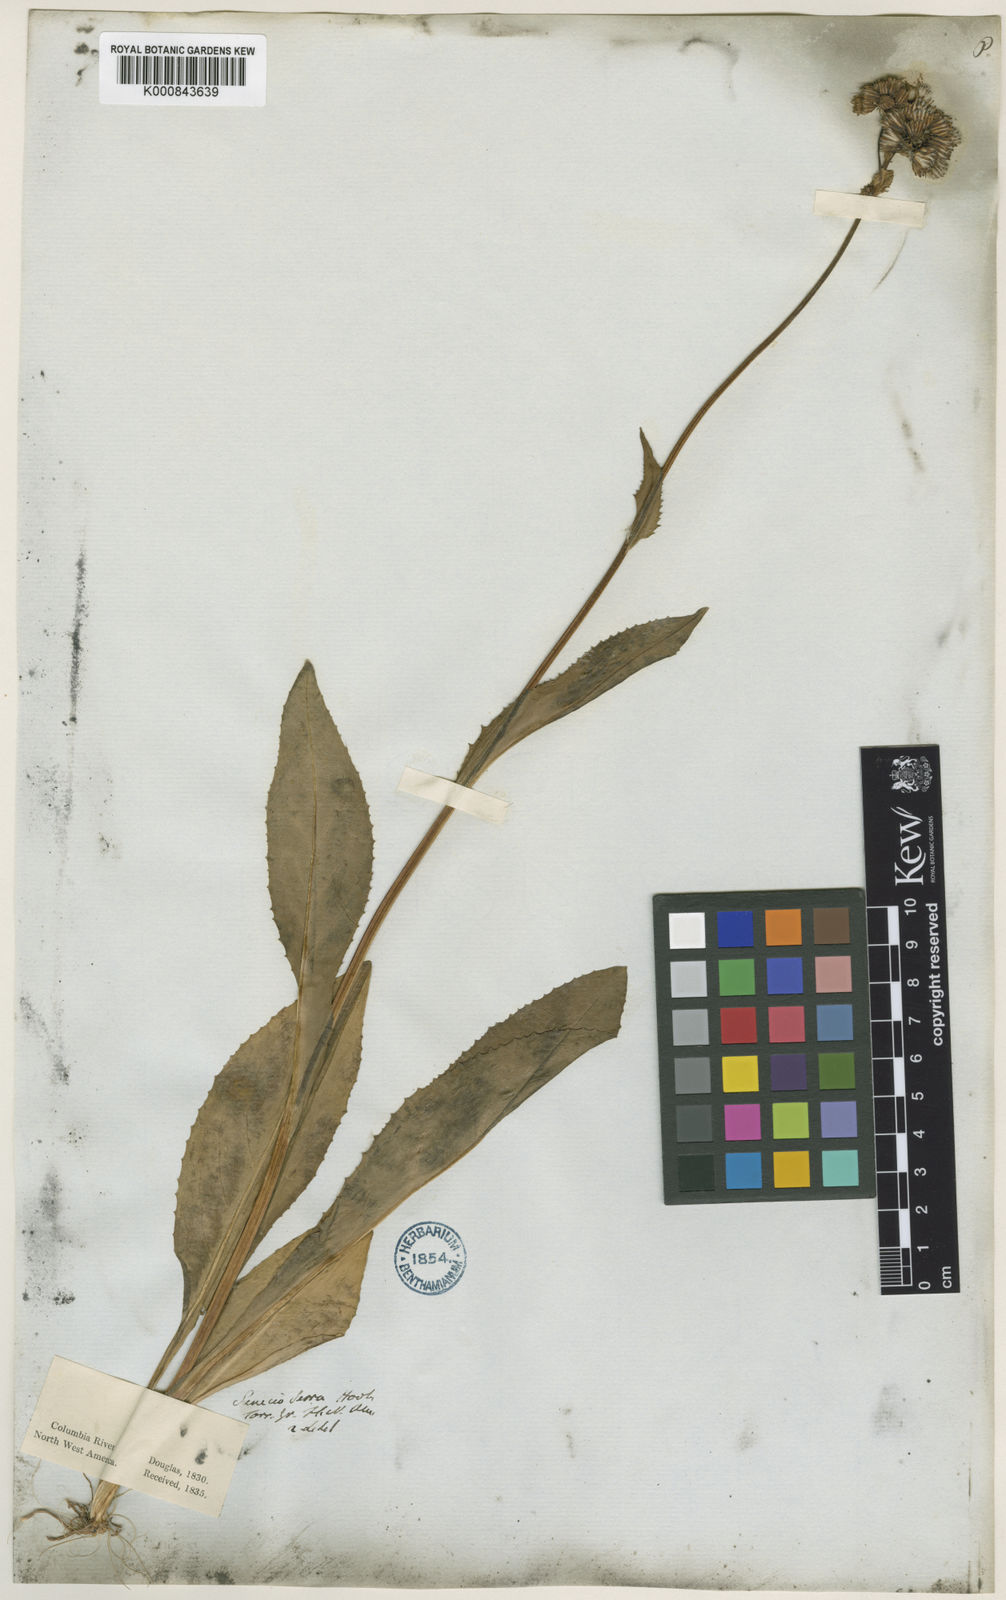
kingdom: Plantae
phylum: Tracheophyta
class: Magnoliopsida
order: Asterales
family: Asteraceae
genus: Senecio
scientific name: Senecio serra
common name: Tall ragwort
